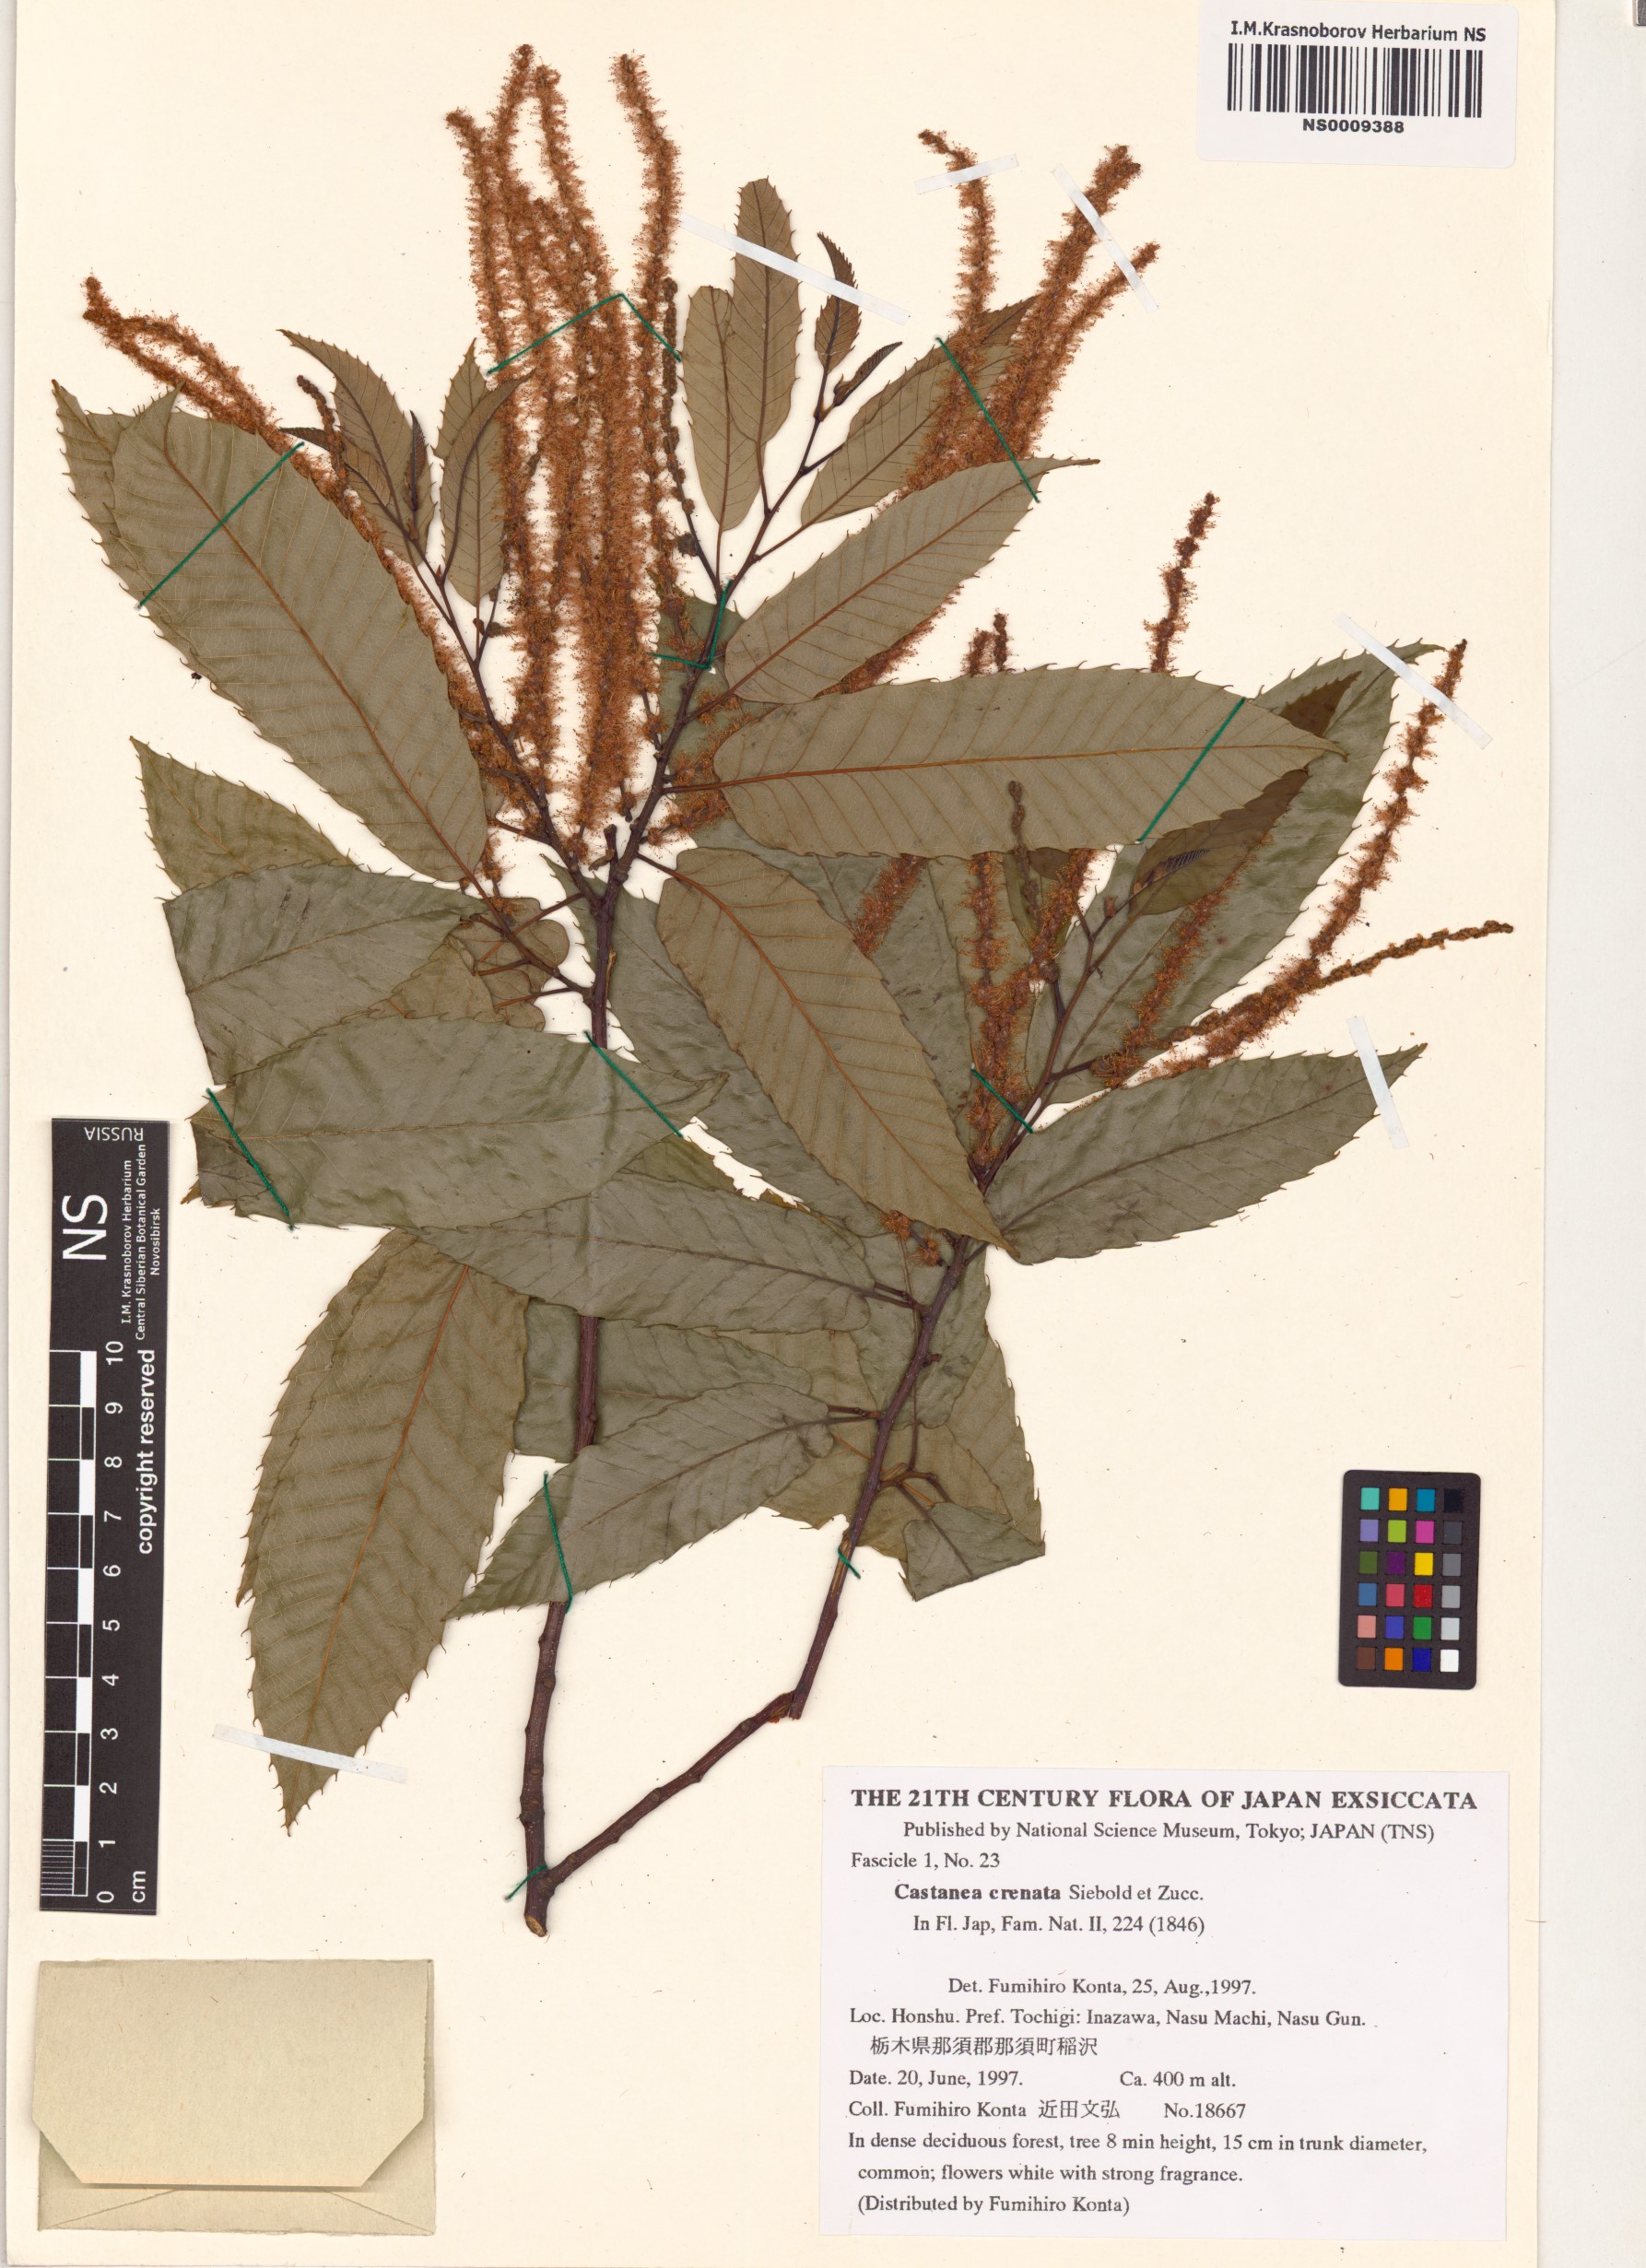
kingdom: Plantae
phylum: Tracheophyta
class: Magnoliopsida
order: Fagales
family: Fagaceae
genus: Castanea
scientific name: Castanea crenata
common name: Japanese chestnut
